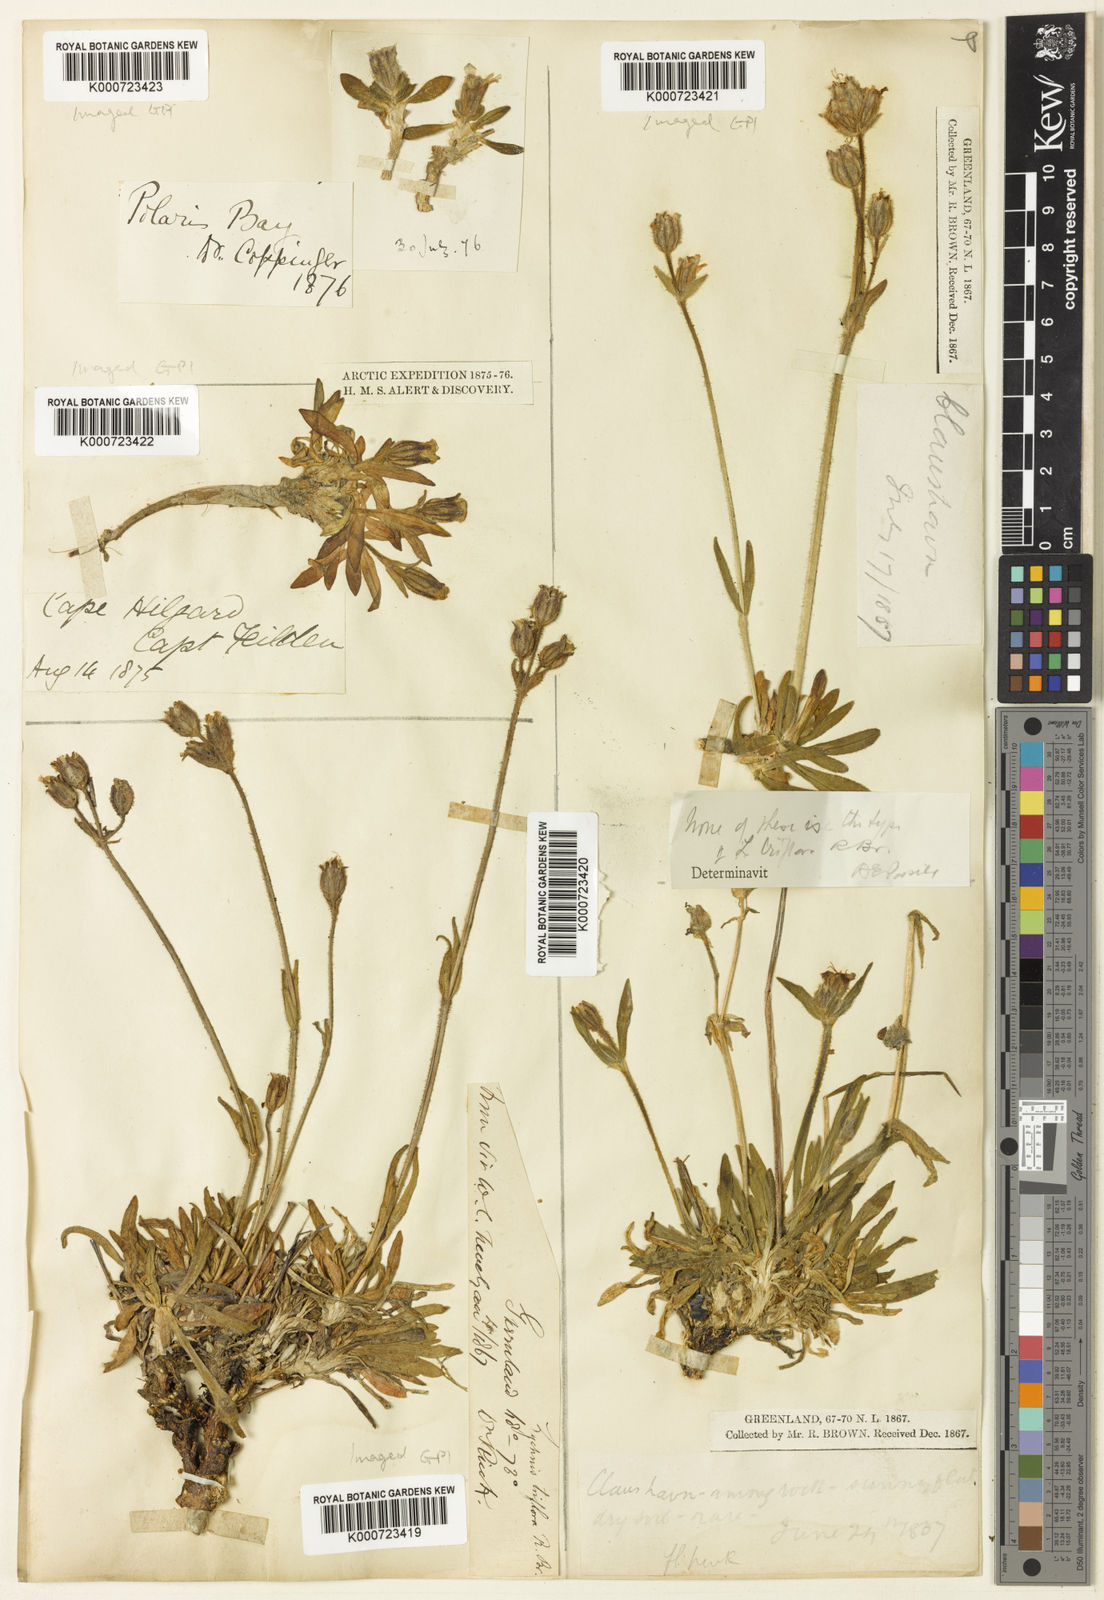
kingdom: Plantae
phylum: Tracheophyta
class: Magnoliopsida
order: Caryophyllales
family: Caryophyllaceae
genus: Silene
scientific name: Silene
